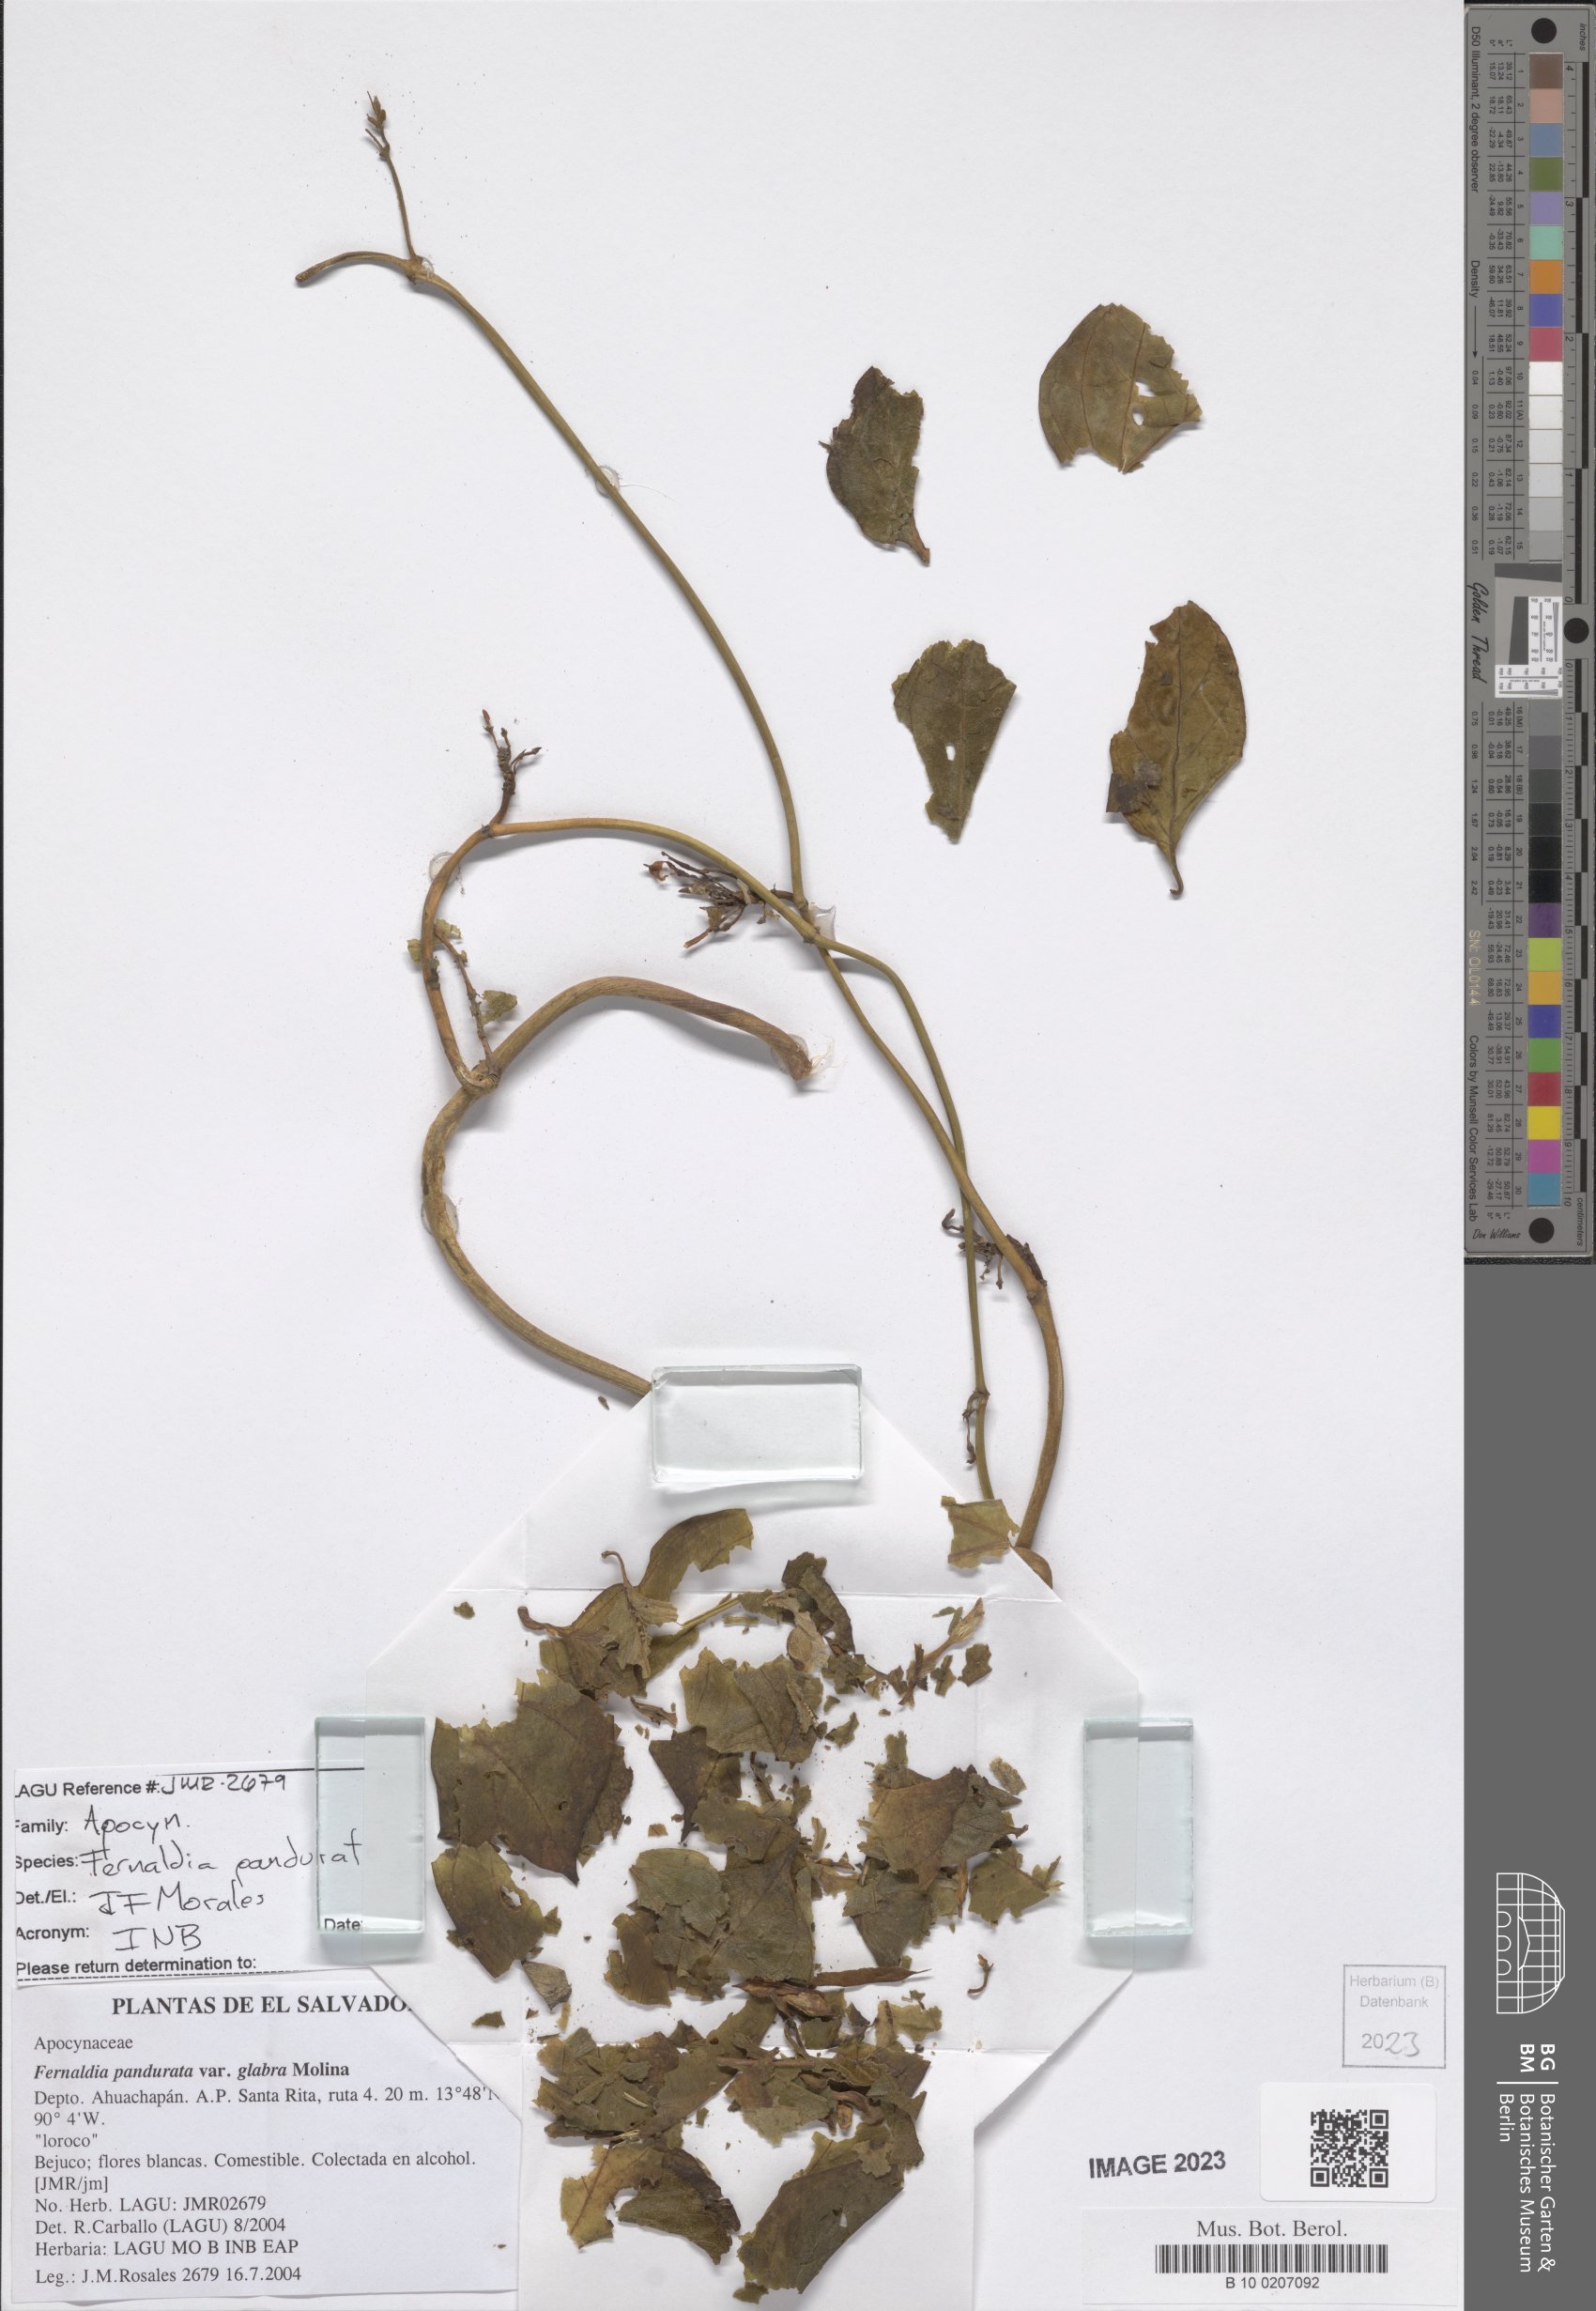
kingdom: Plantae
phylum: Tracheophyta
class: Magnoliopsida
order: Gentianales
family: Apocynaceae
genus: Echites
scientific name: Echites panduratus
